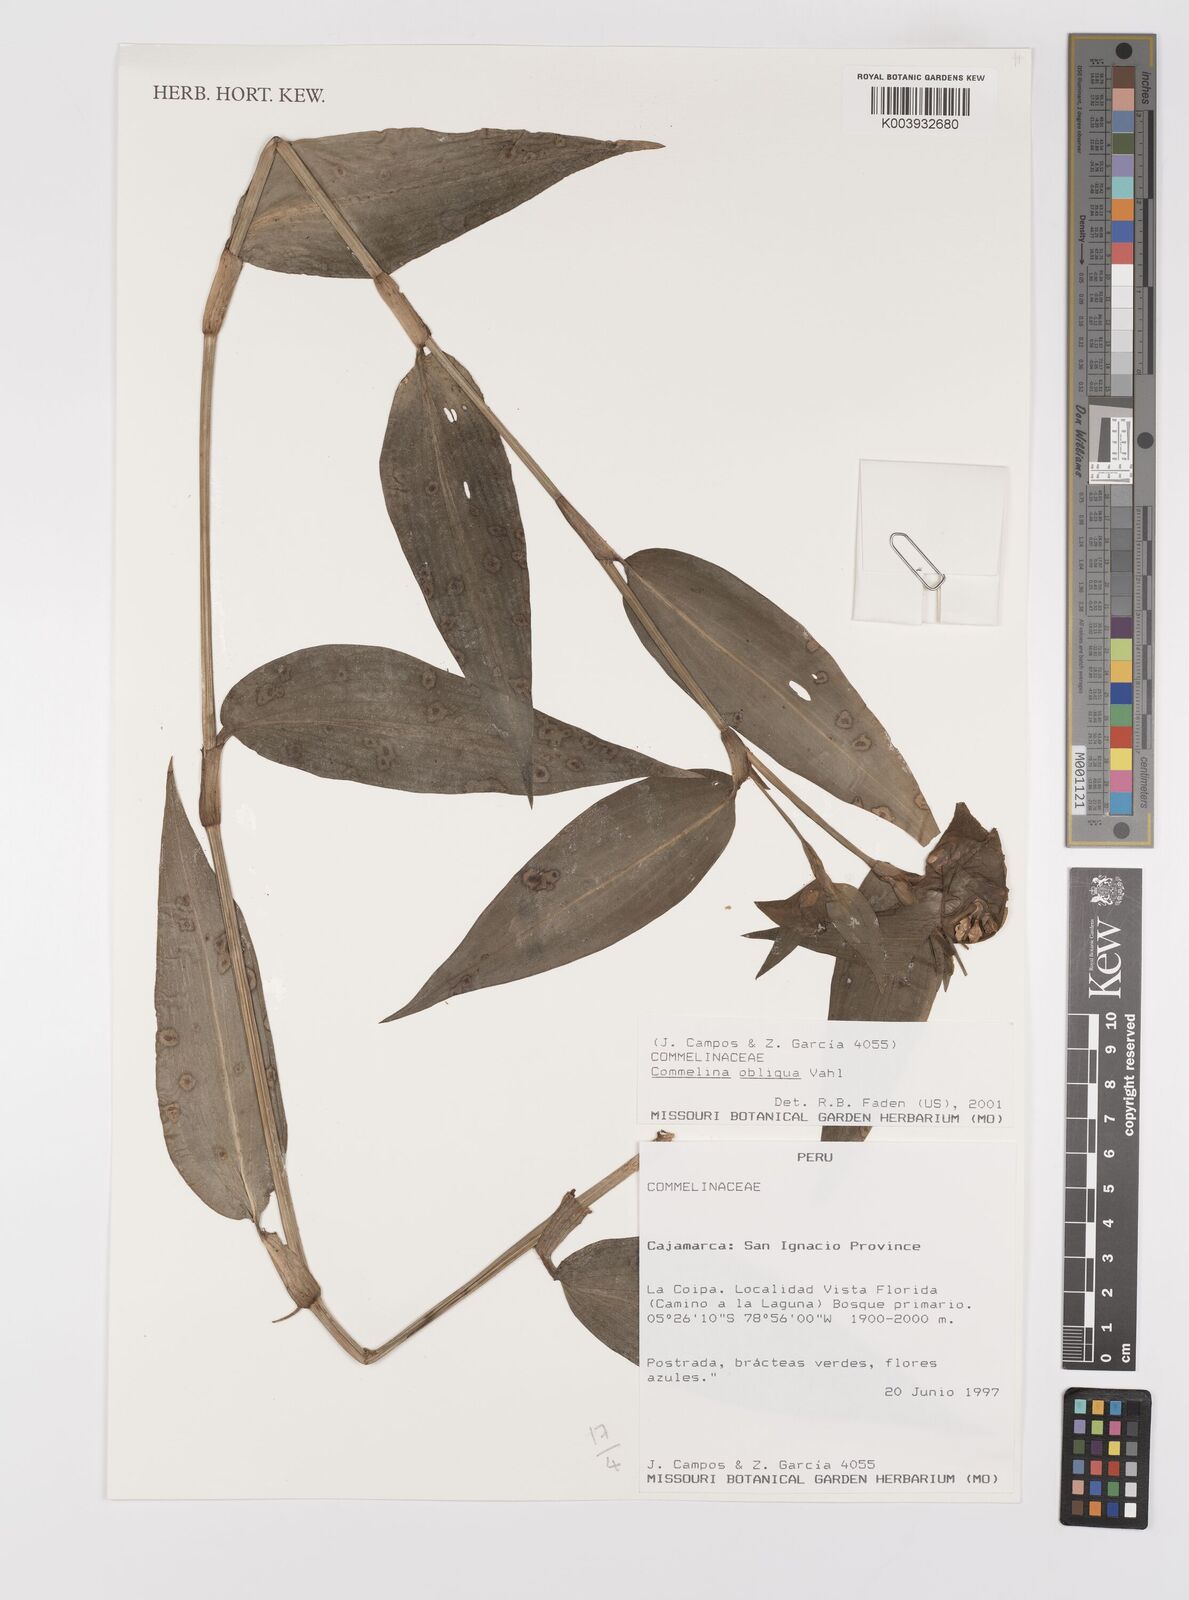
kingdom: Plantae
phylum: Tracheophyta
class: Liliopsida
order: Commelinales
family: Commelinaceae
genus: Commelina
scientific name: Commelina obliqua
